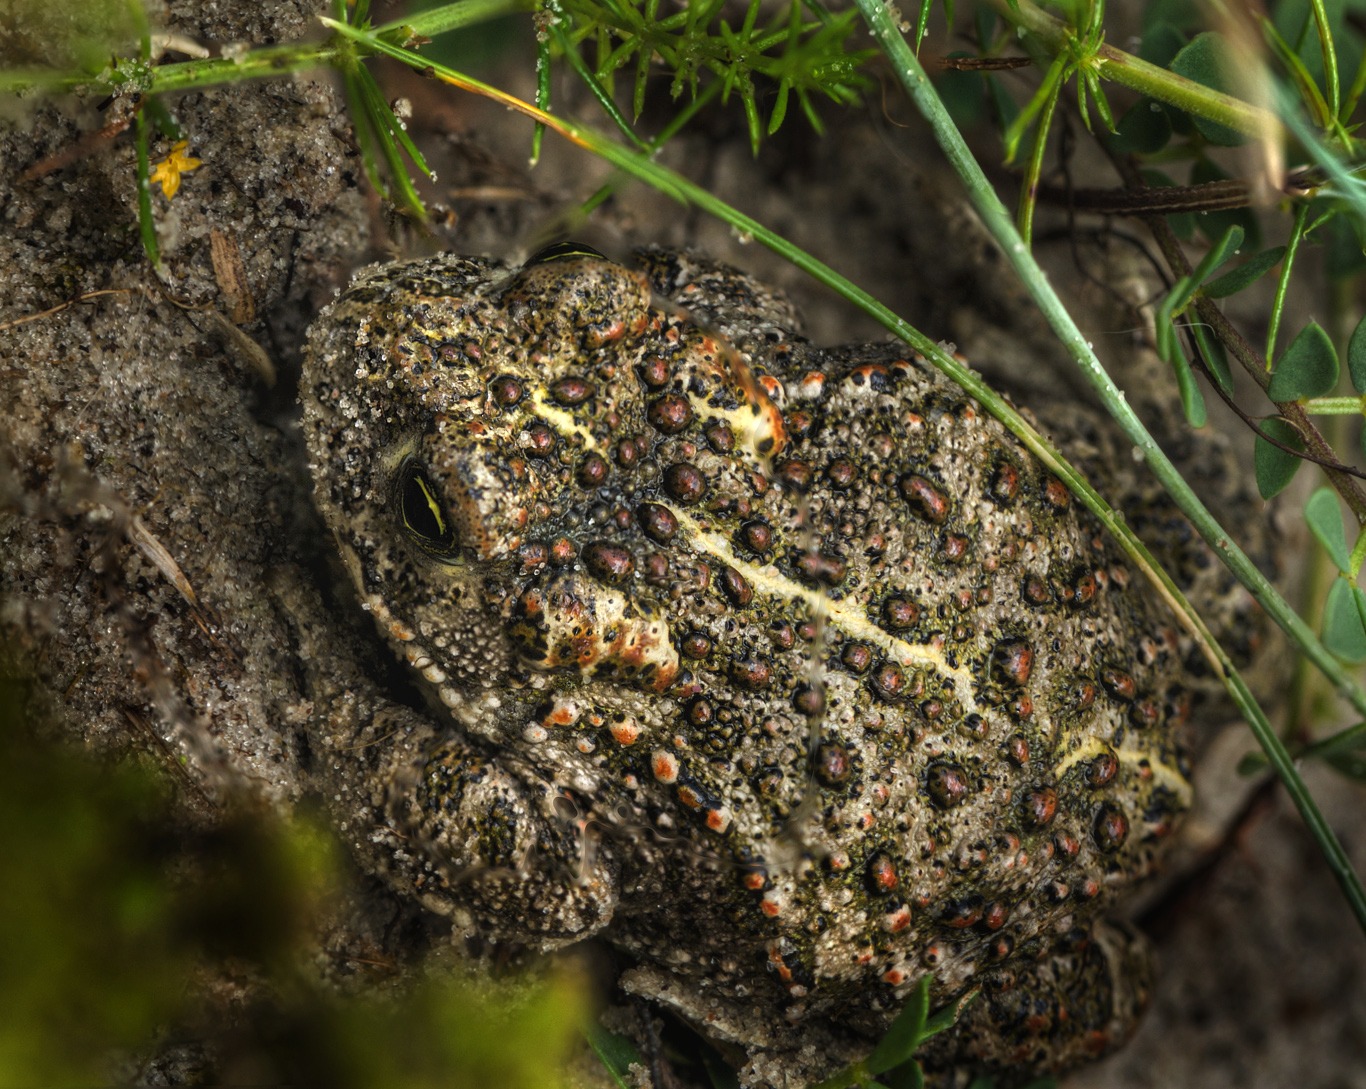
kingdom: Animalia
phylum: Chordata
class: Amphibia
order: Anura
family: Bufonidae
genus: Epidalea
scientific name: Epidalea calamita
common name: Strandtudse
